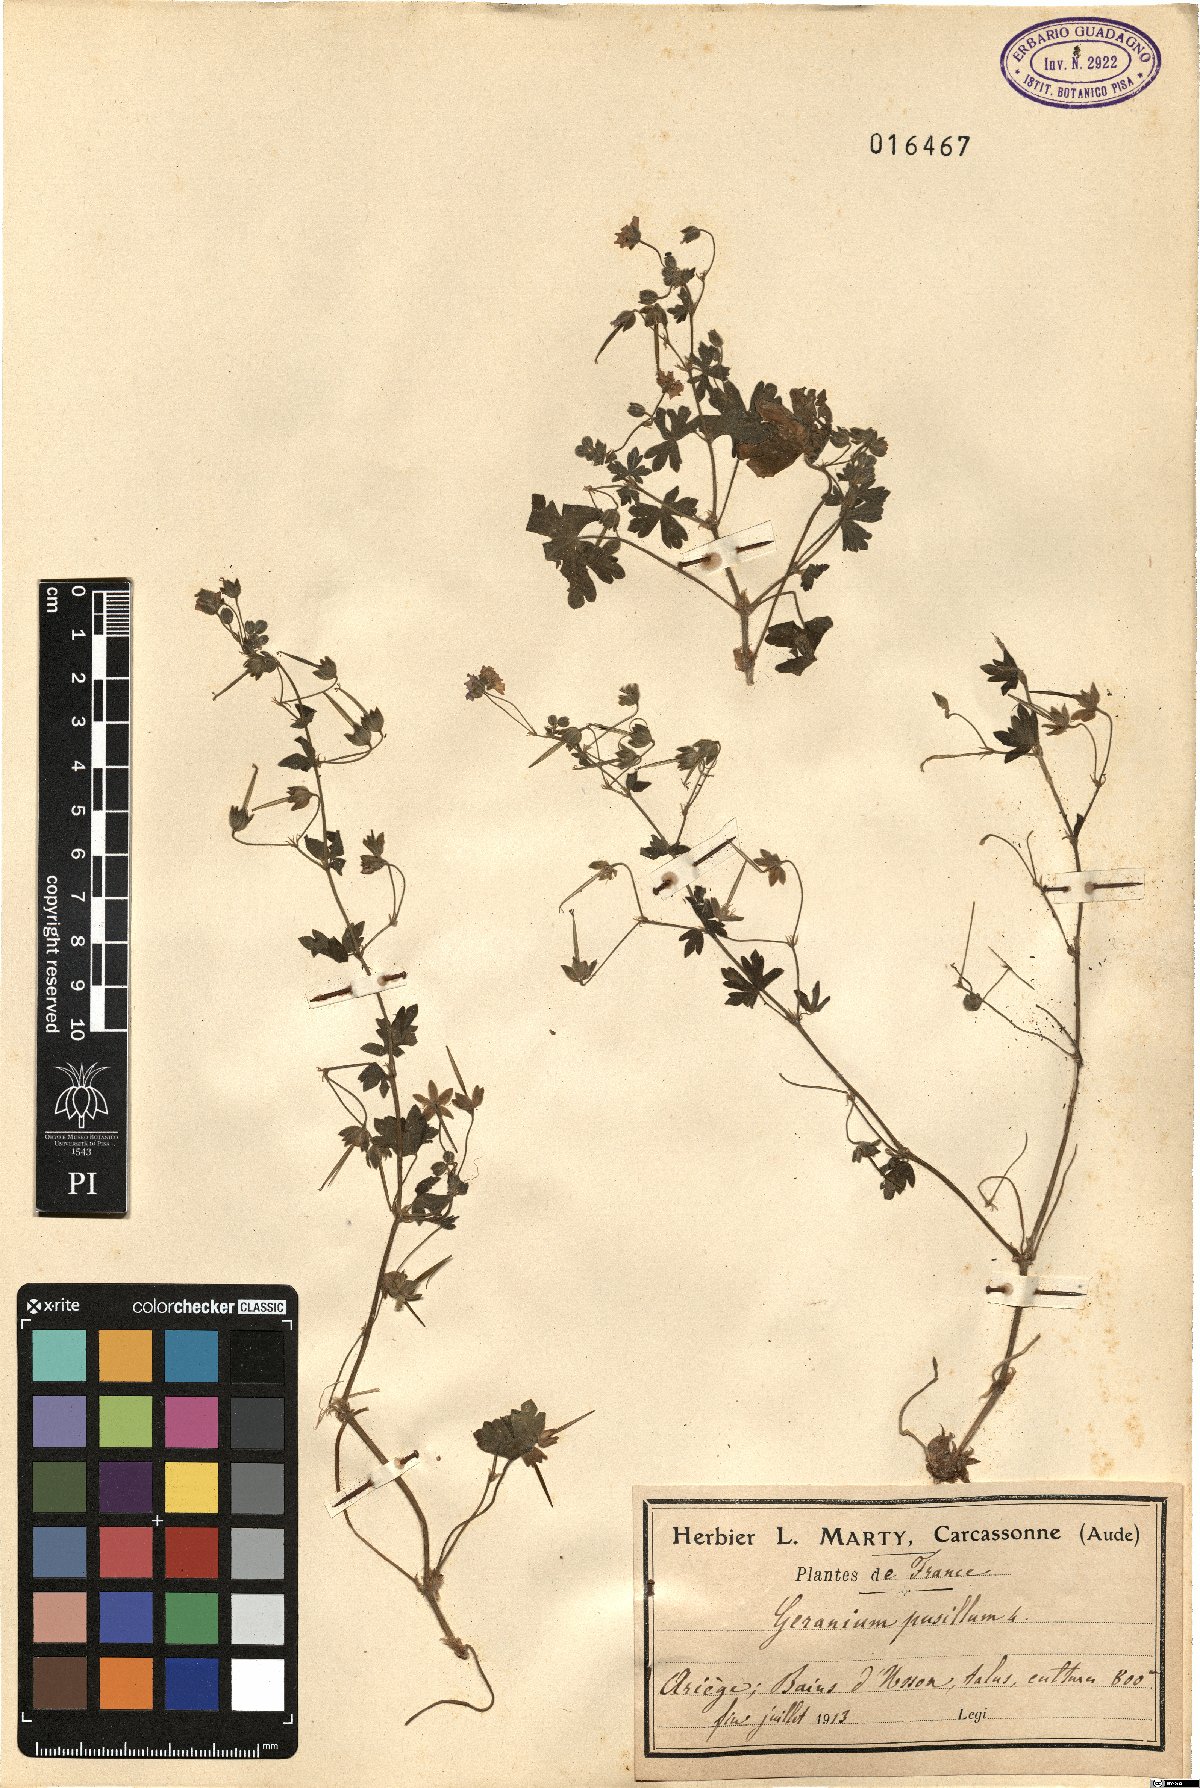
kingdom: Plantae
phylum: Tracheophyta
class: Magnoliopsida
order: Geraniales
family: Geraniaceae
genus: Geranium
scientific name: Geranium pusillum
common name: Small geranium
